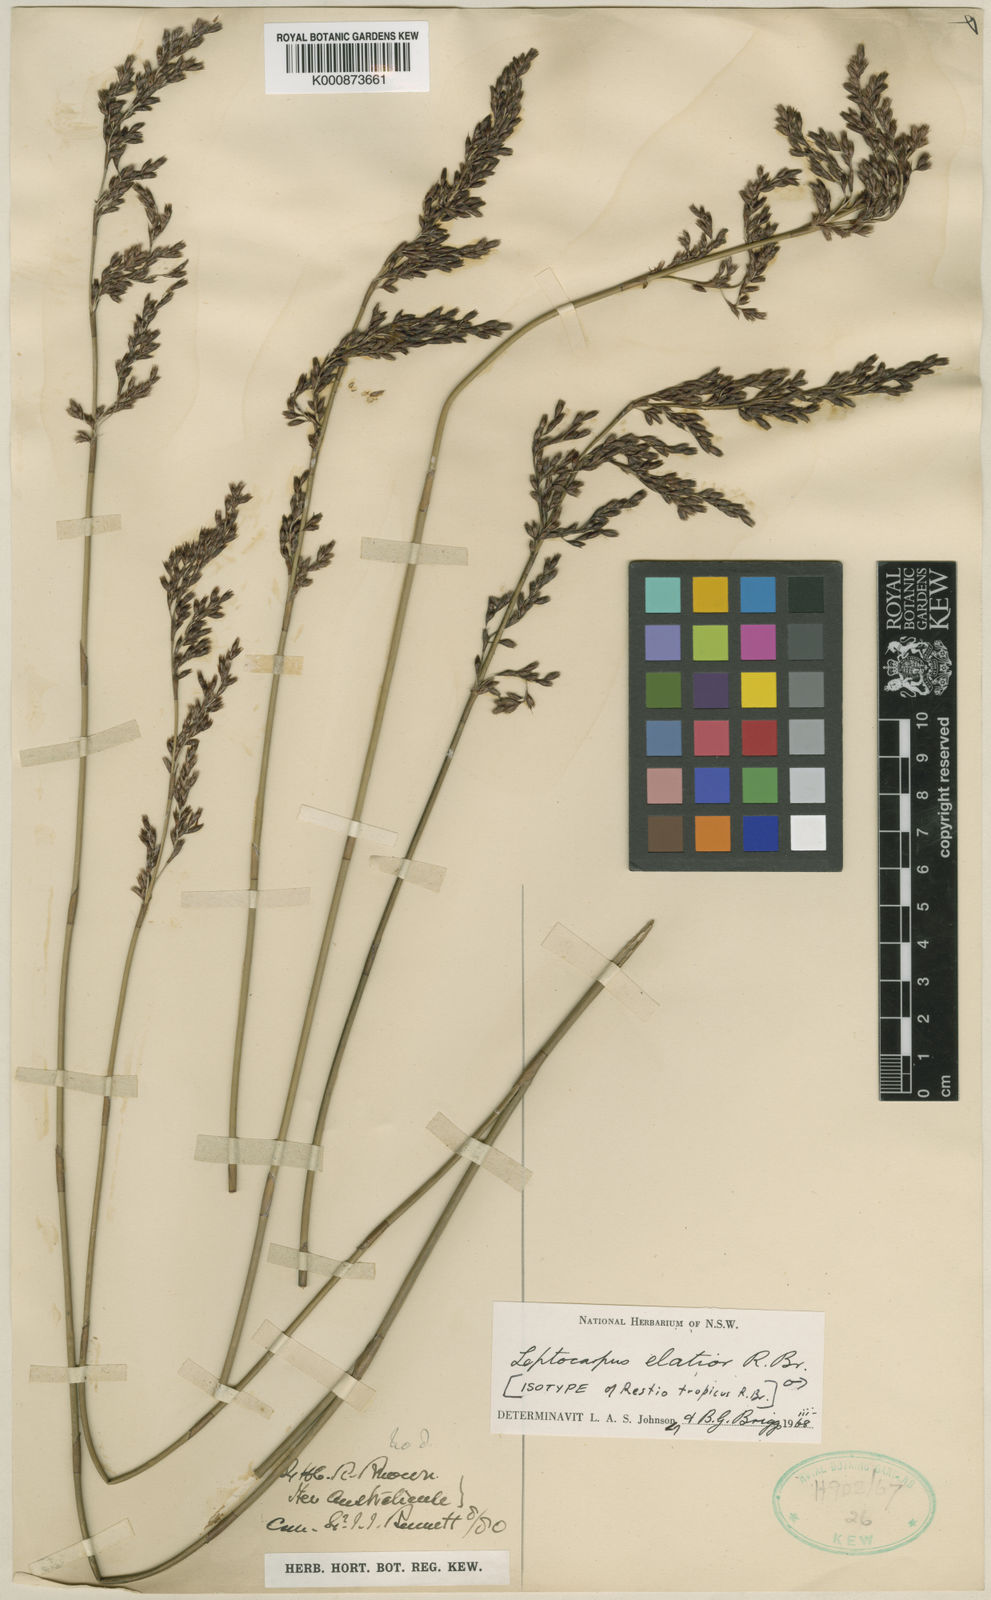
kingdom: Plantae
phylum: Tracheophyta
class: Liliopsida
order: Poales
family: Restionaceae
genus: Dapsilanthus
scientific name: Dapsilanthus elatior
